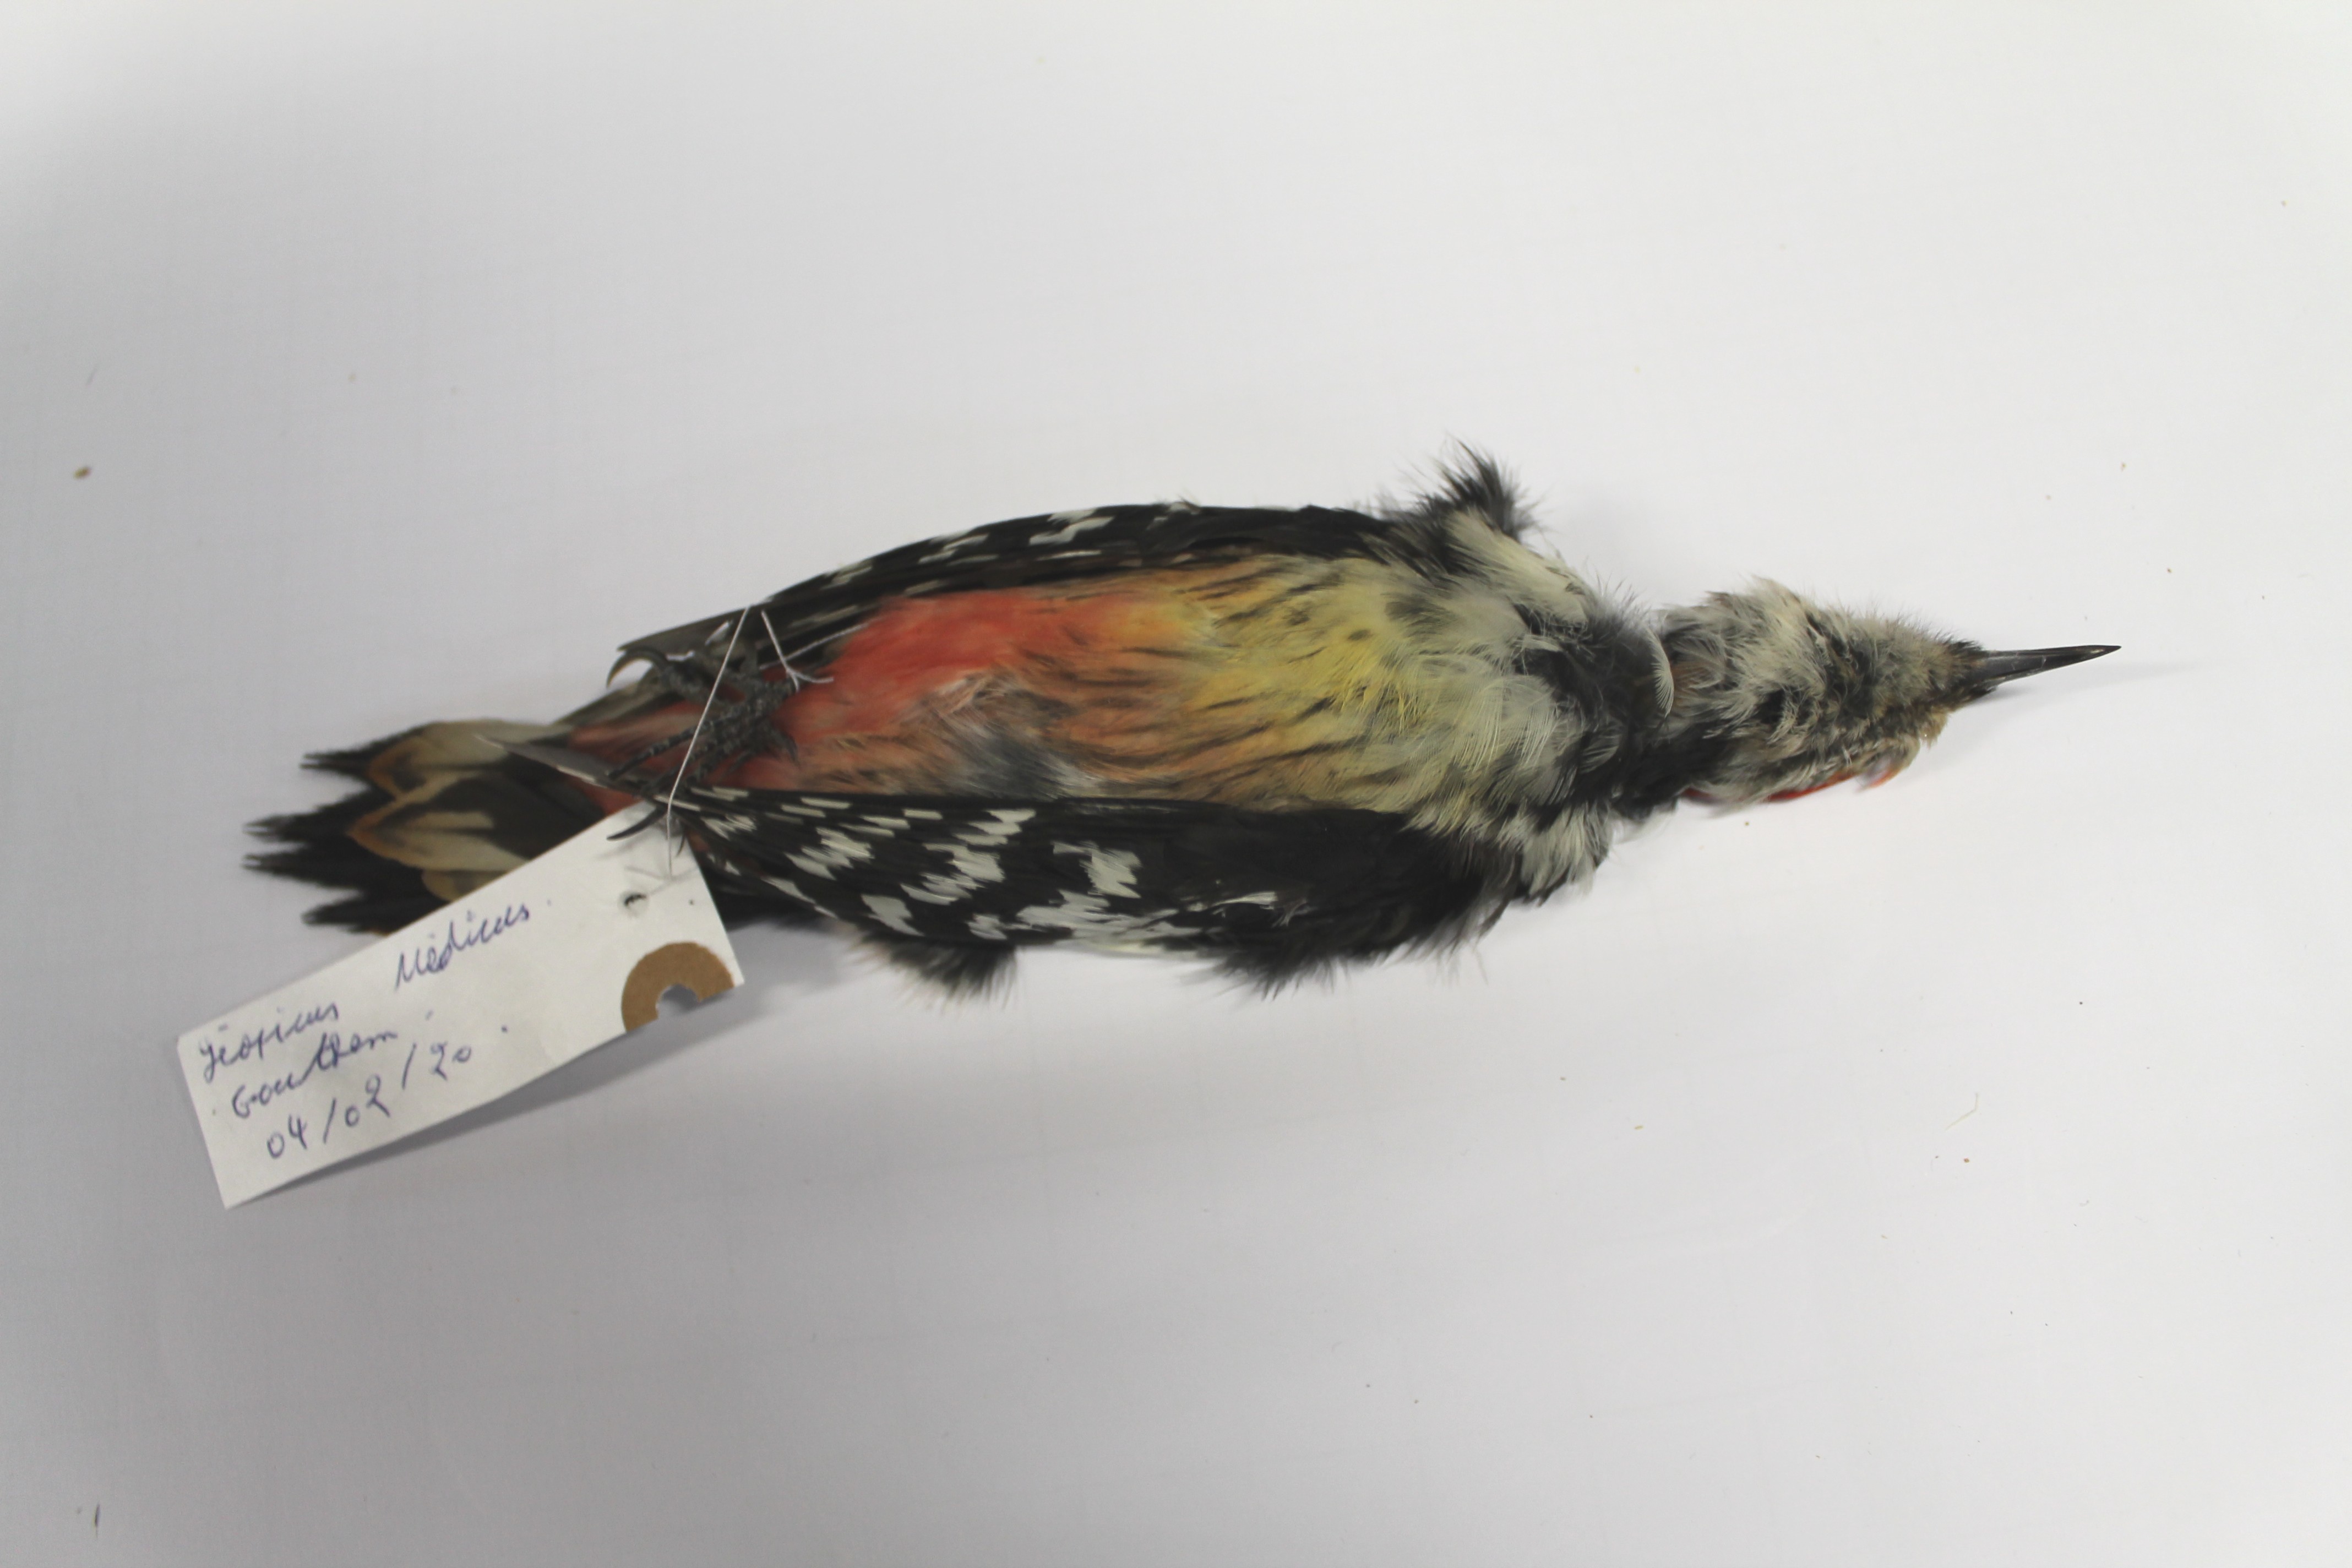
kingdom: Animalia
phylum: Chordata
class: Aves
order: Piciformes
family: Picidae
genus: Dendrocoptes
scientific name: Dendrocoptes medius
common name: Middle spotted woodpecker
